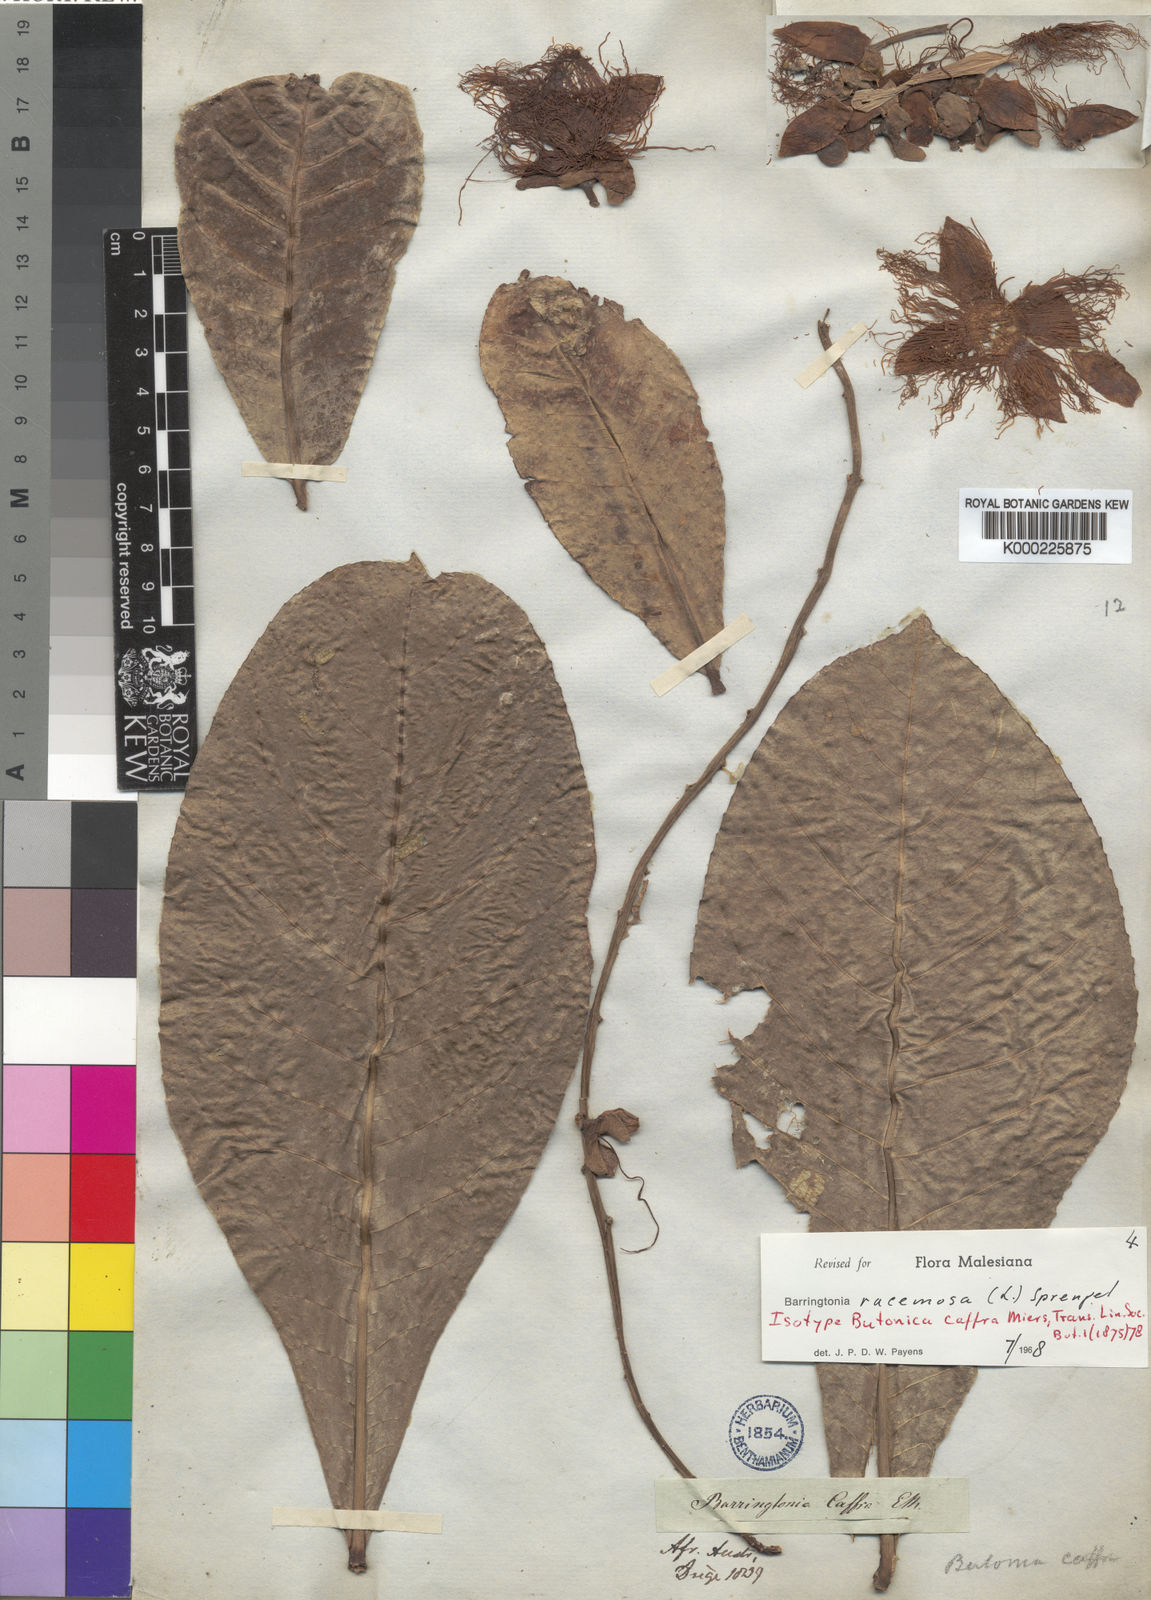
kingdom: Plantae
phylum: Tracheophyta
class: Magnoliopsida
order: Ericales
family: Lecythidaceae
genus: Barringtonia
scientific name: Barringtonia
